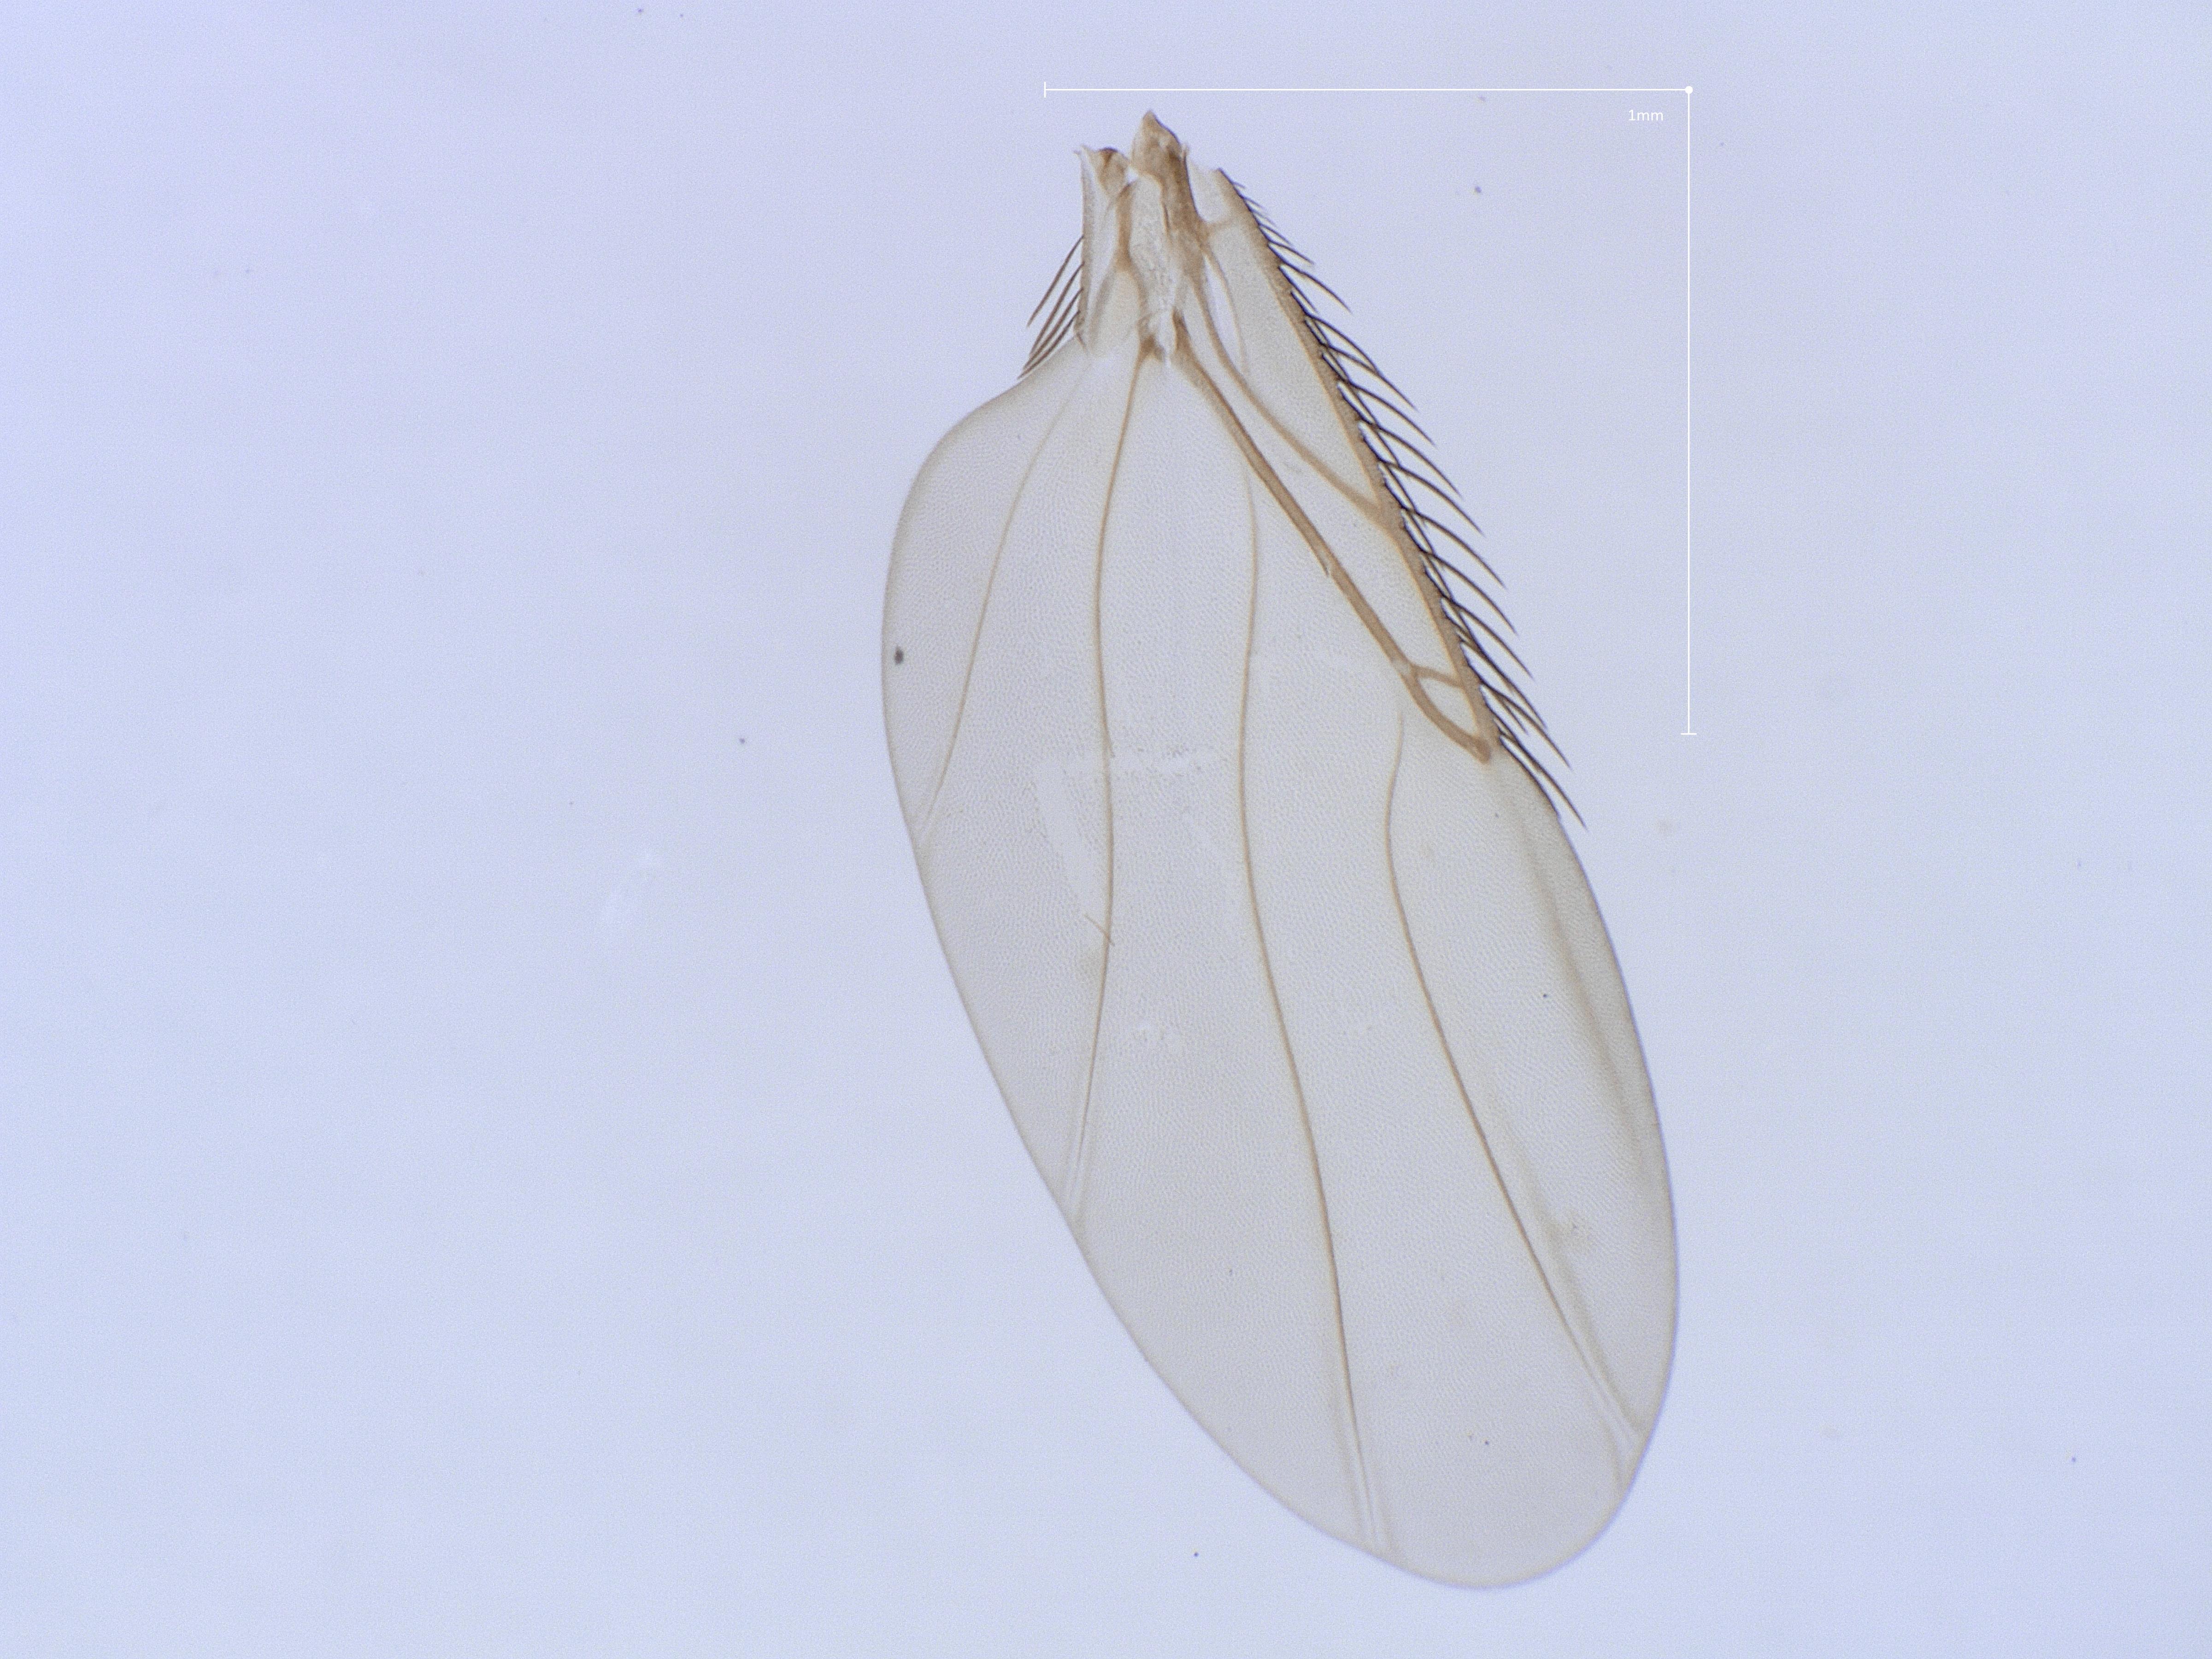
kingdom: Animalia
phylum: Arthropoda
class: Insecta
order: Diptera
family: Phoridae
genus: Megaselia
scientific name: Megaselia vernalis
